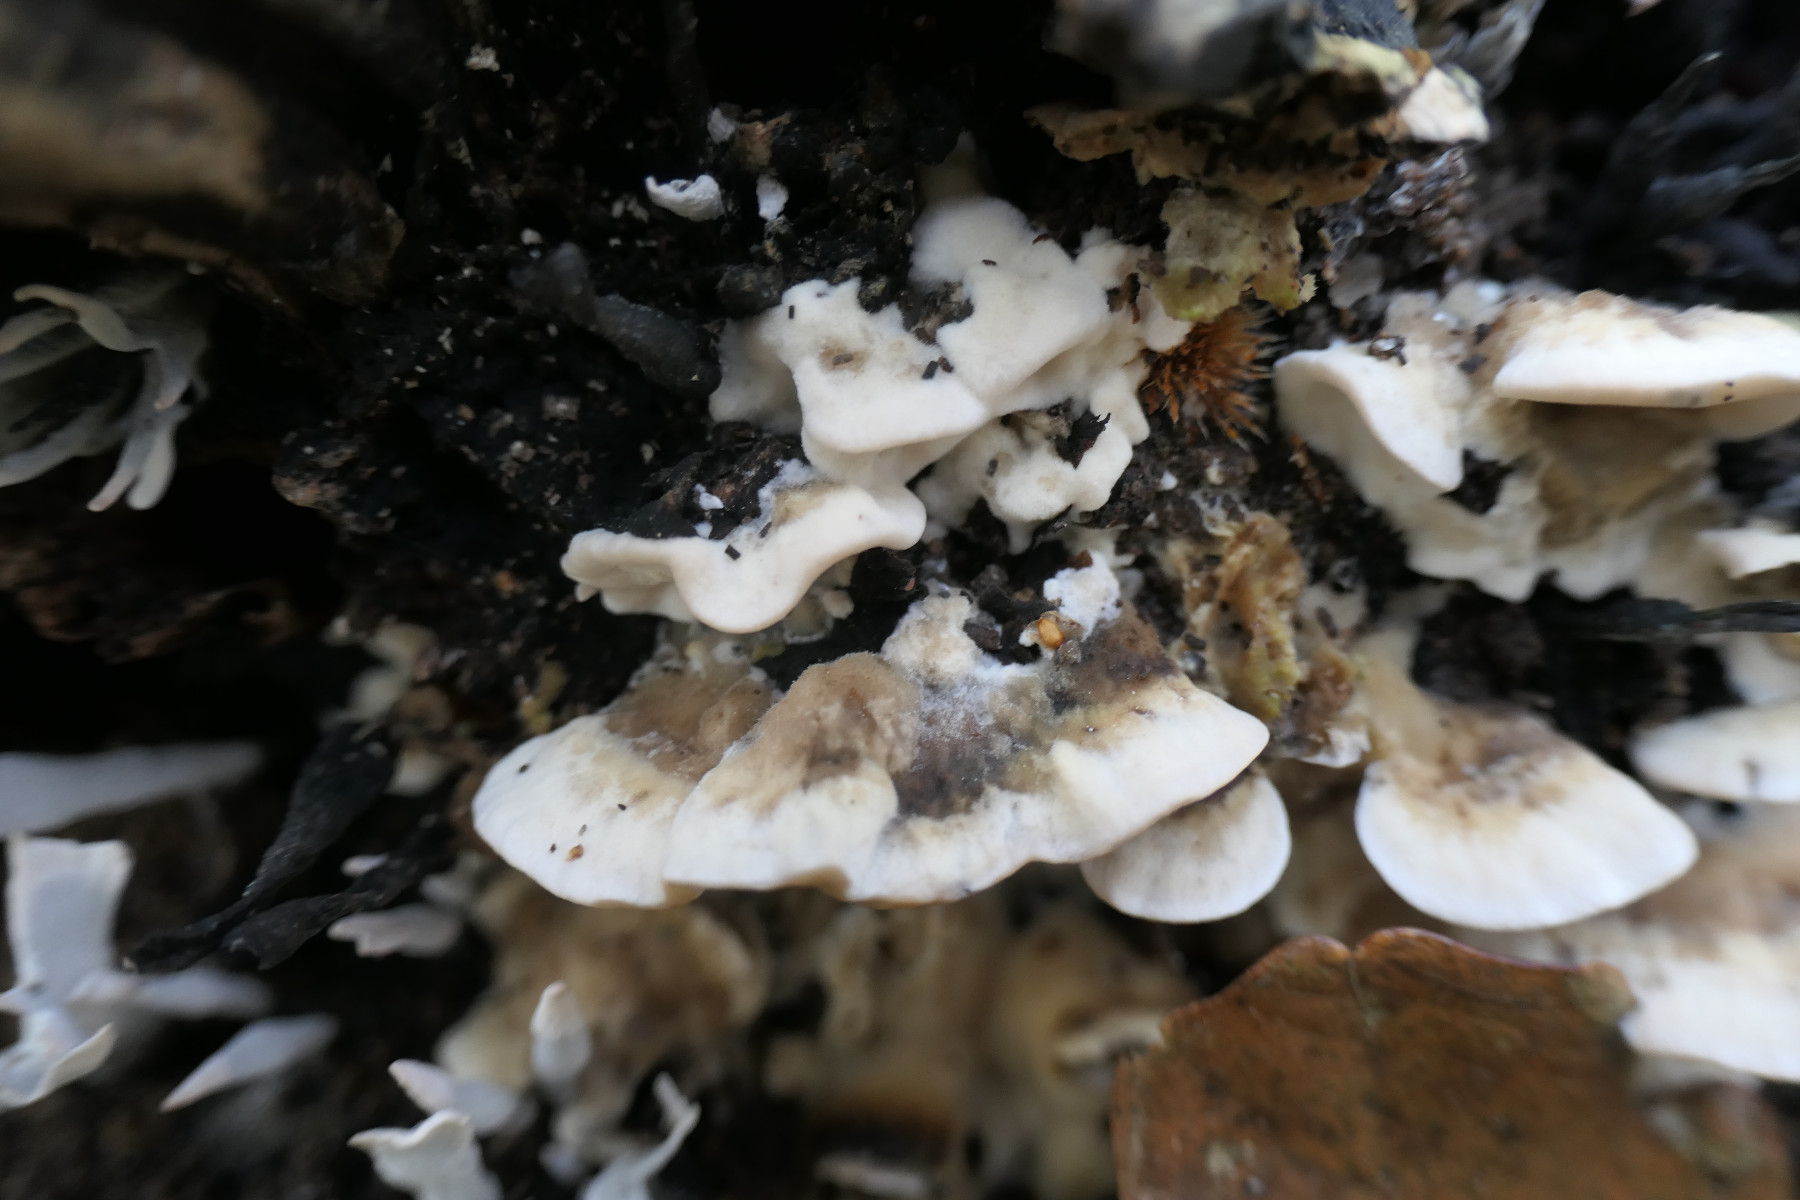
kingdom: Fungi
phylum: Basidiomycota
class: Agaricomycetes
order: Polyporales
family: Phanerochaetaceae
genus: Bjerkandera
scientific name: Bjerkandera adusta
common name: sveden sodporesvamp
